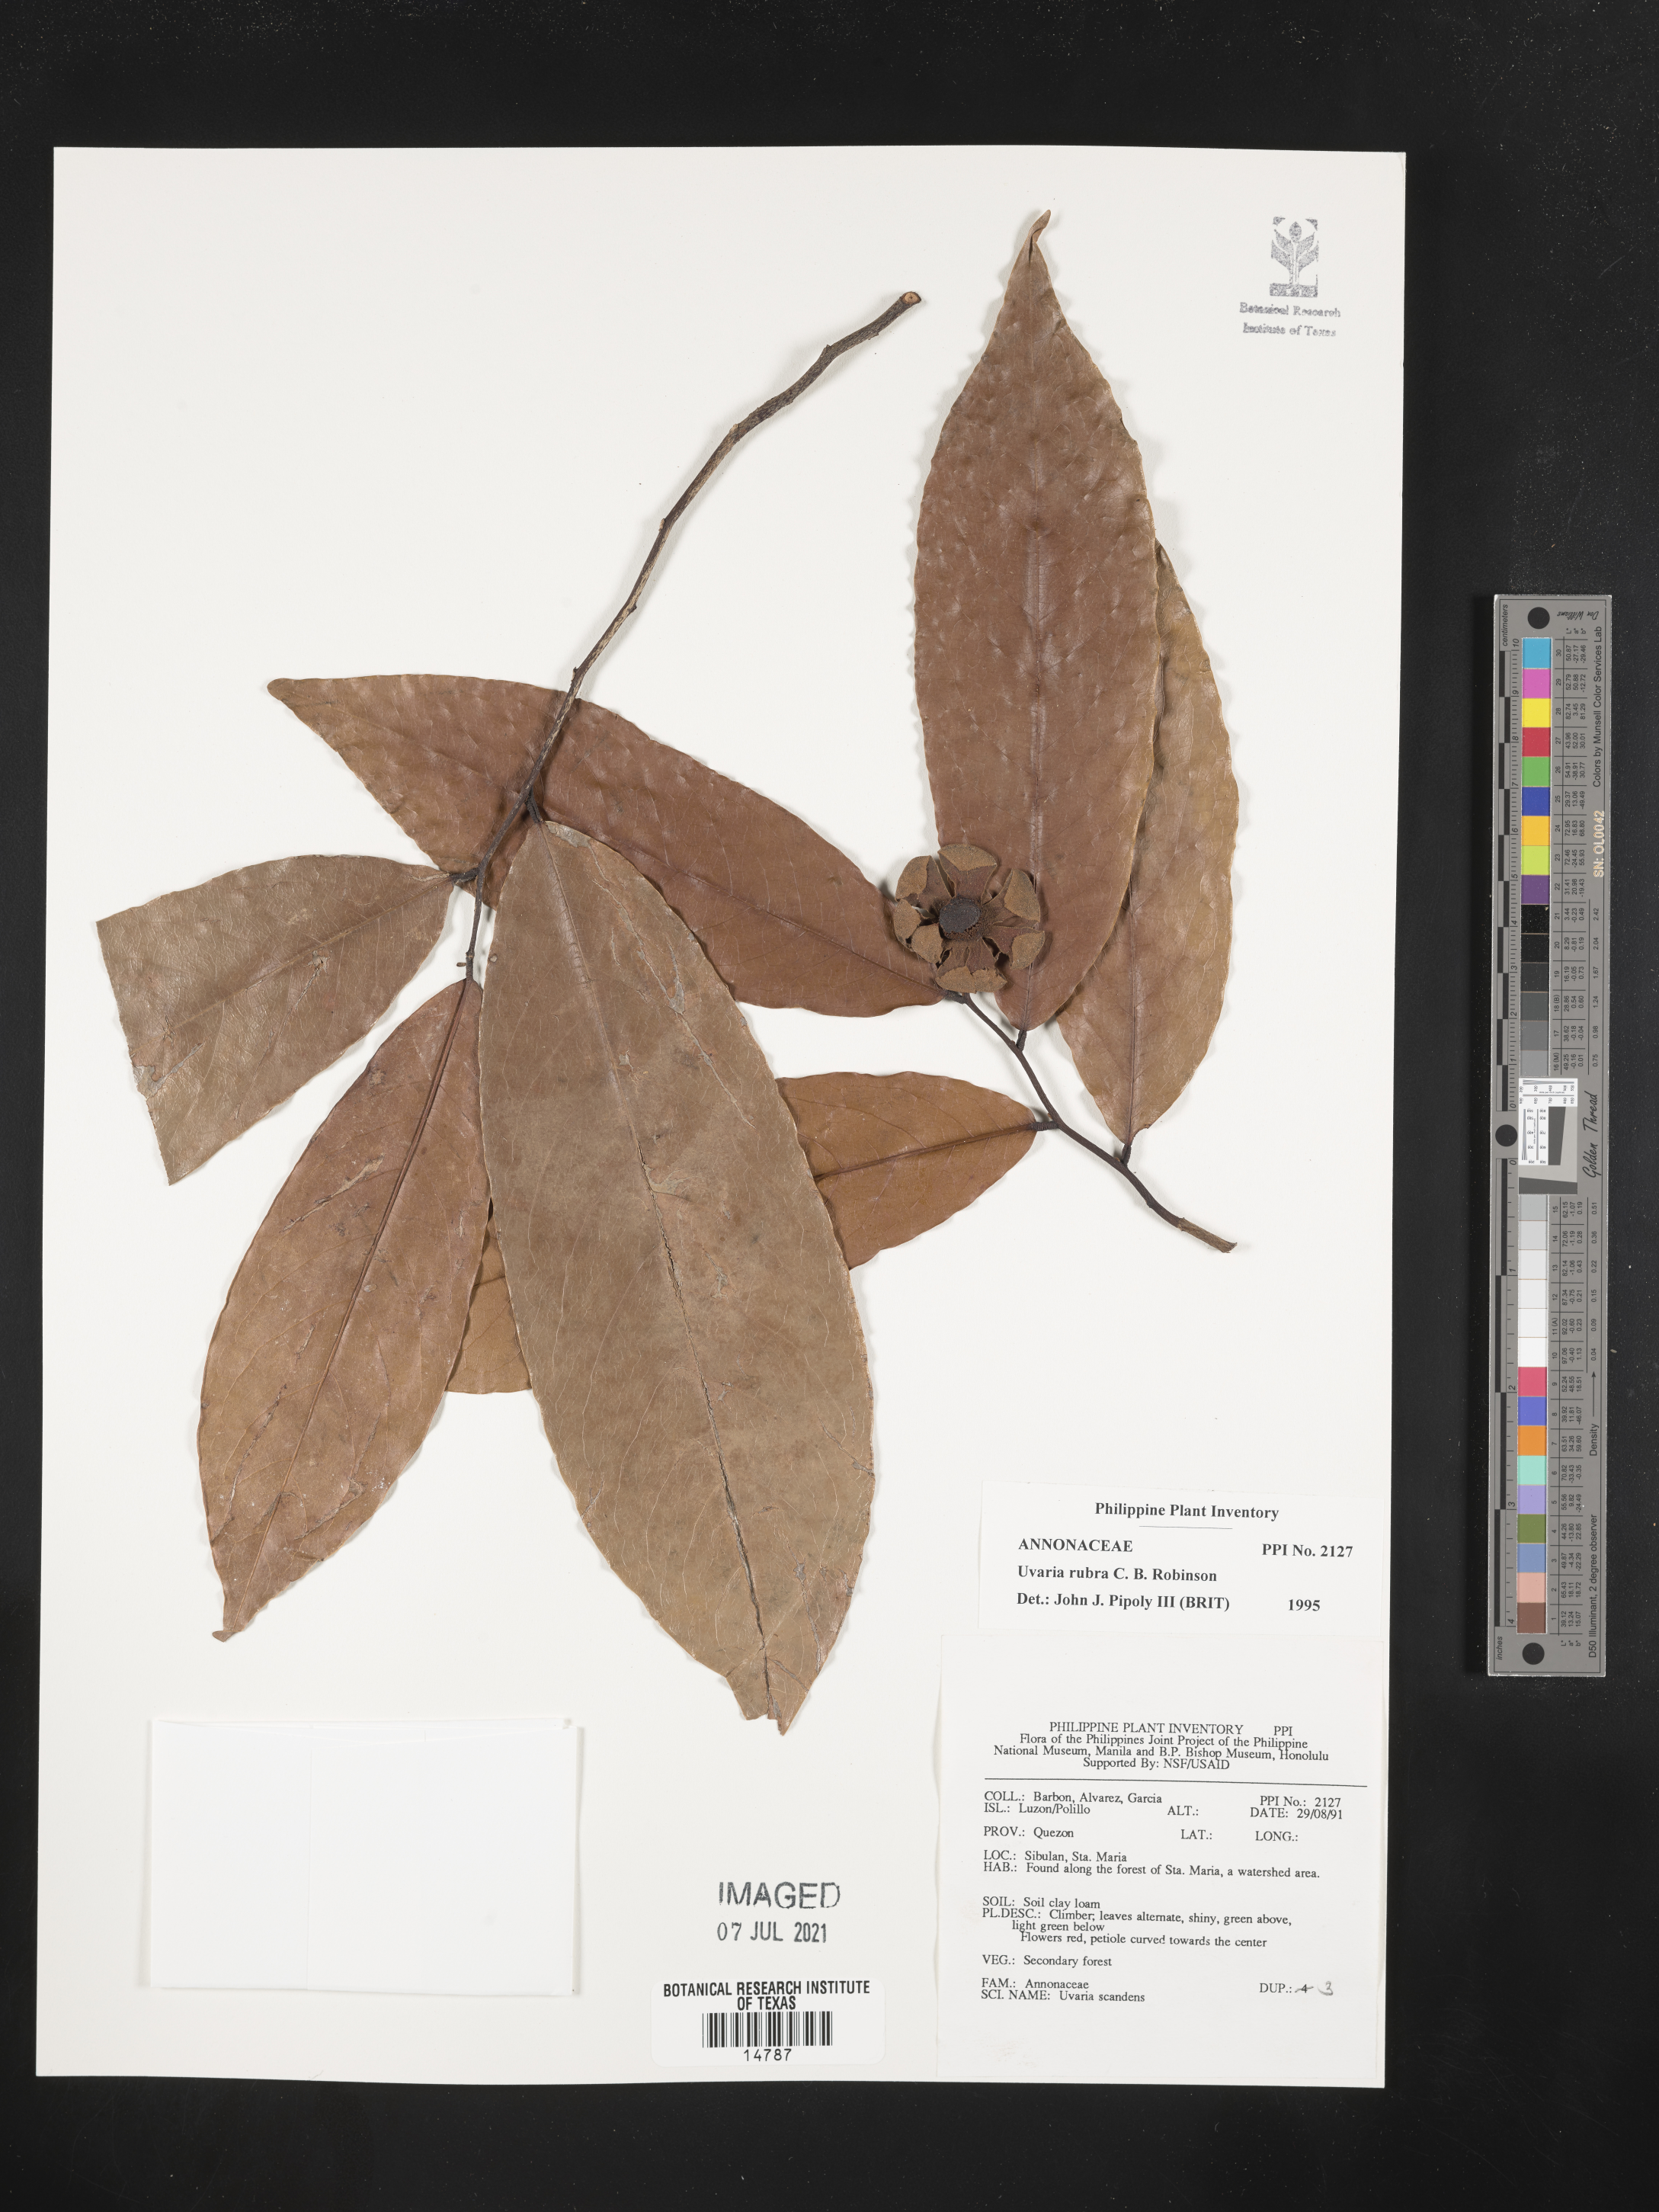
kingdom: Plantae
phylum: Tracheophyta
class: Magnoliopsida
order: Magnoliales
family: Annonaceae
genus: Uvaria
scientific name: Uvaria grandiflora
